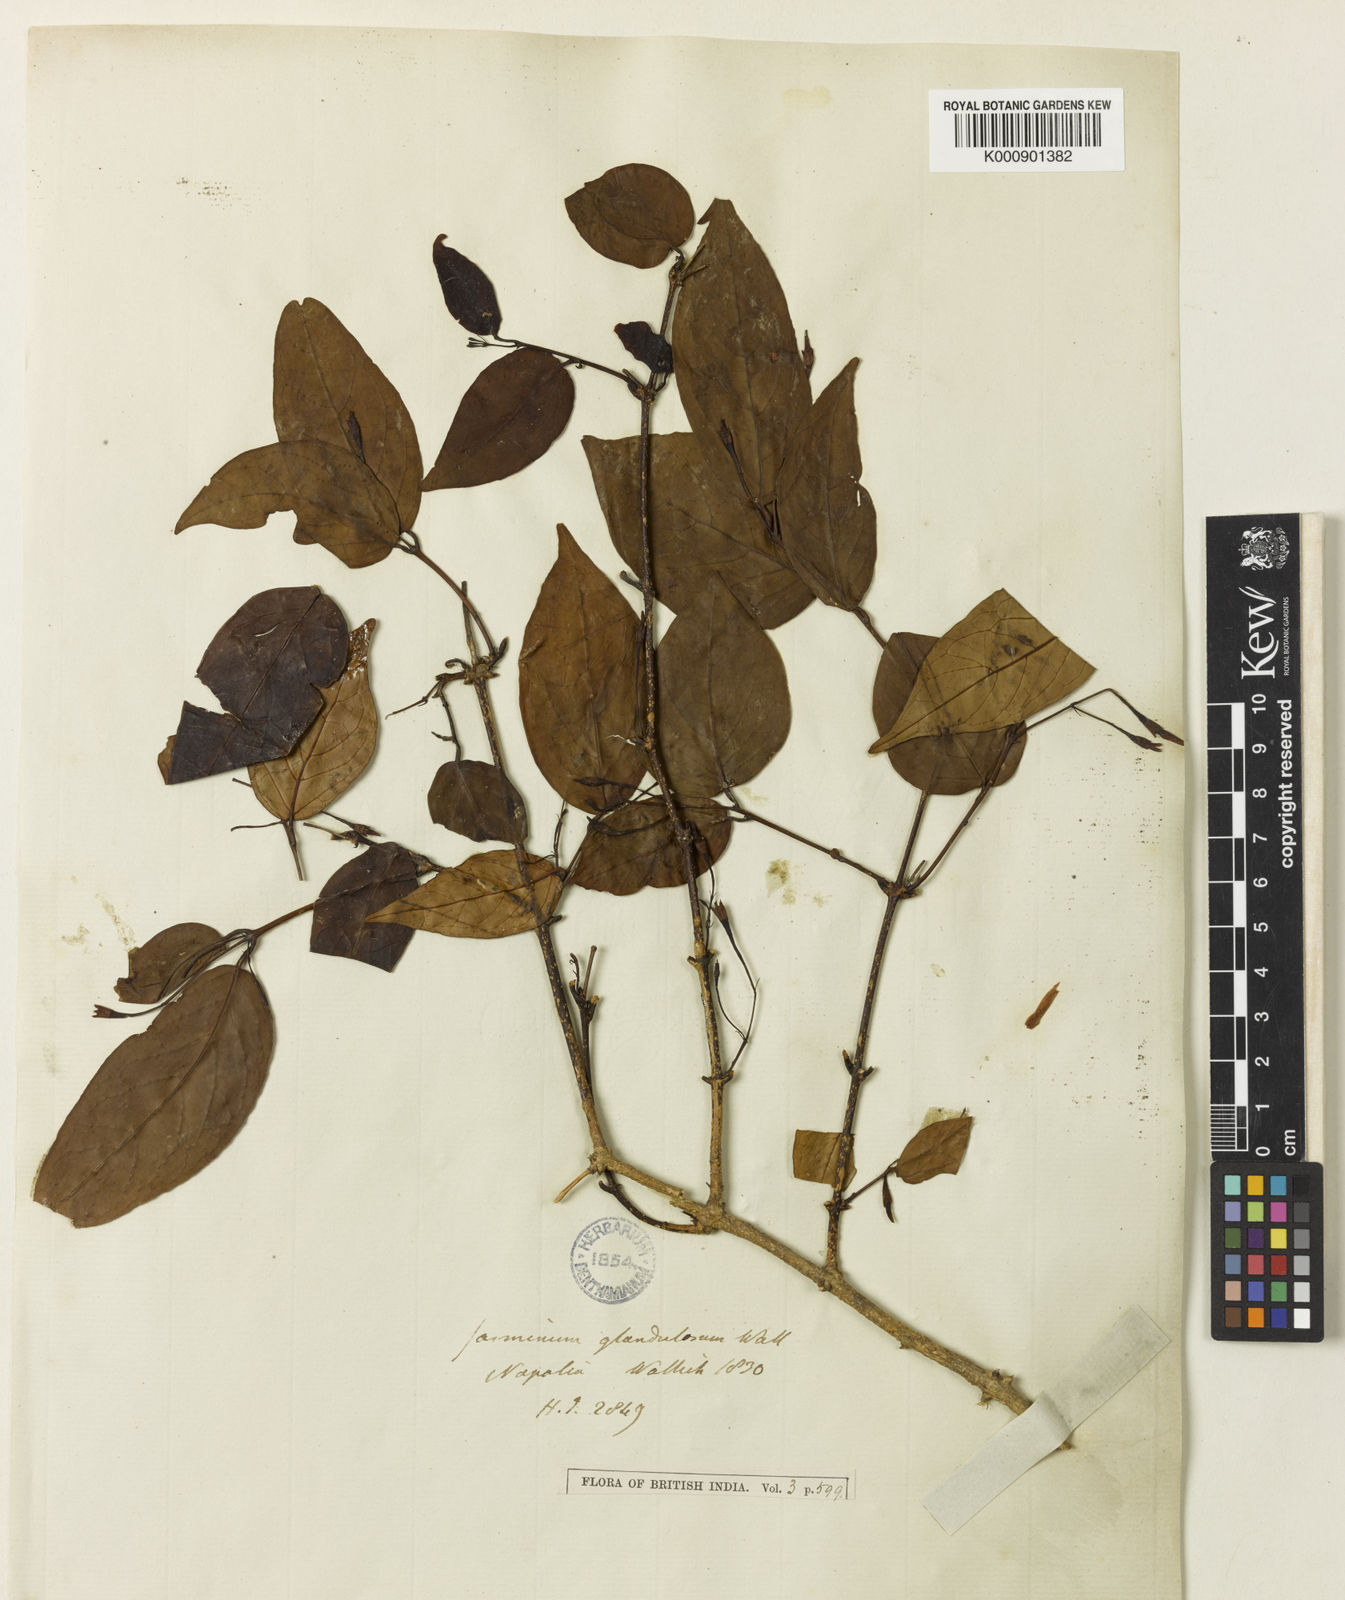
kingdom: Plantae
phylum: Tracheophyta
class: Magnoliopsida
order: Lamiales
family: Oleaceae
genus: Jasminum
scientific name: Jasminum nepalense
